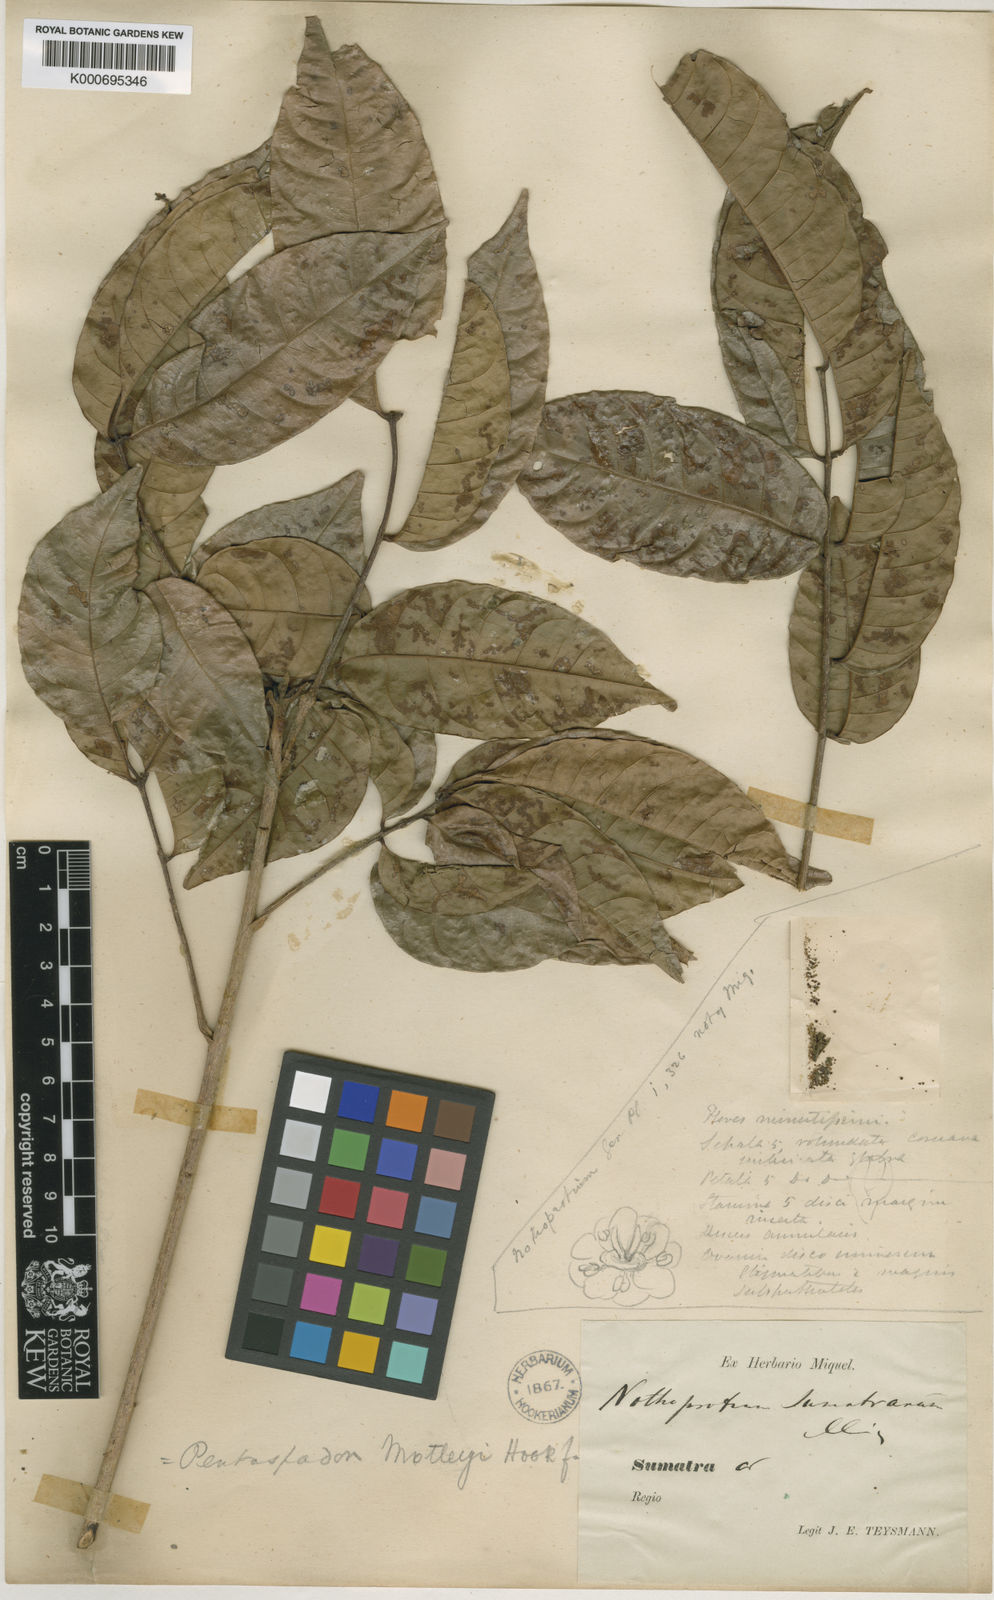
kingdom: Plantae
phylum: Tracheophyta
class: Magnoliopsida
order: Sapindales
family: Anacardiaceae
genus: Pentaspadon
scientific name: Pentaspadon motleyi
